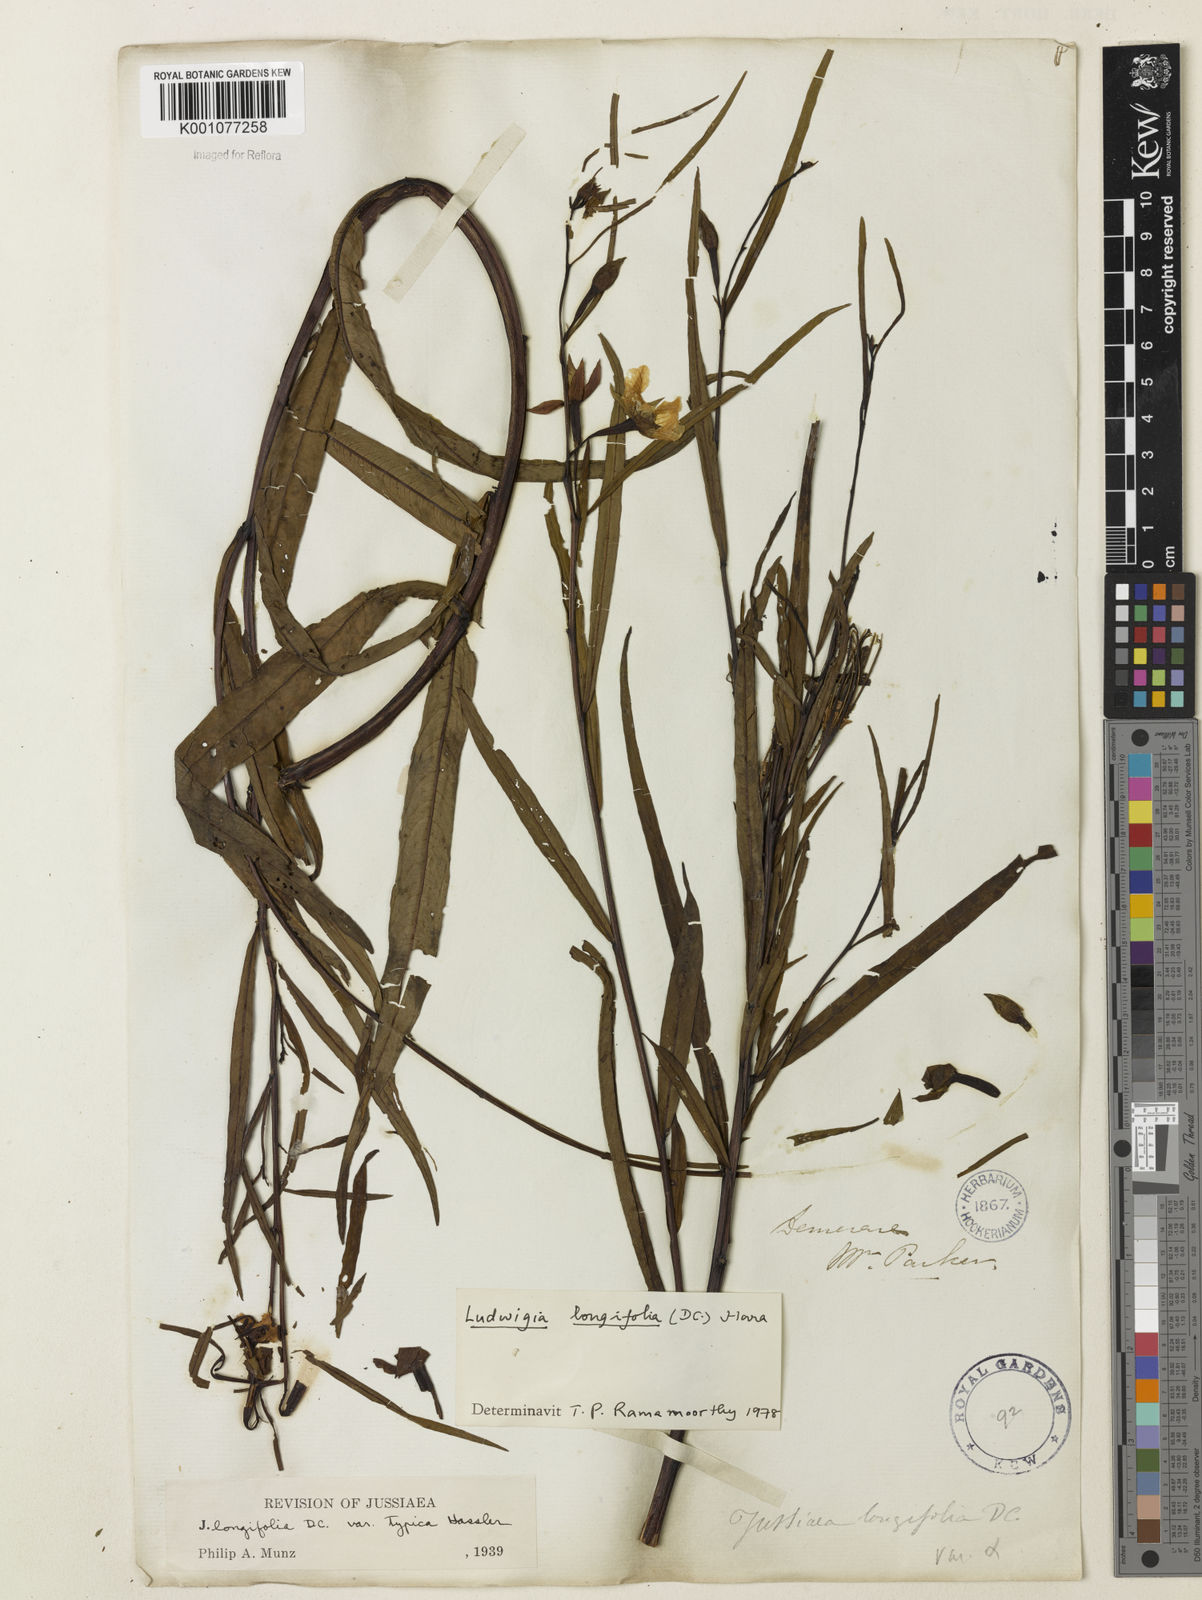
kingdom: Plantae
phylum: Tracheophyta
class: Magnoliopsida
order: Myrtales
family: Onagraceae
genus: Ludwigia
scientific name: Ludwigia longifolia
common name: Longleaf primrose-willow
